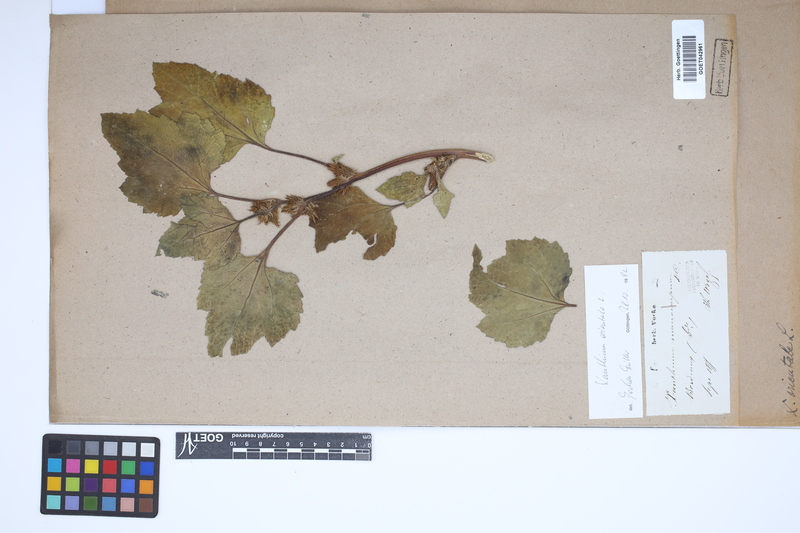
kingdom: Plantae
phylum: Tracheophyta
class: Magnoliopsida
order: Asterales
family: Asteraceae
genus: Xanthium
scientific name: Xanthium orientale
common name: Californian burr
